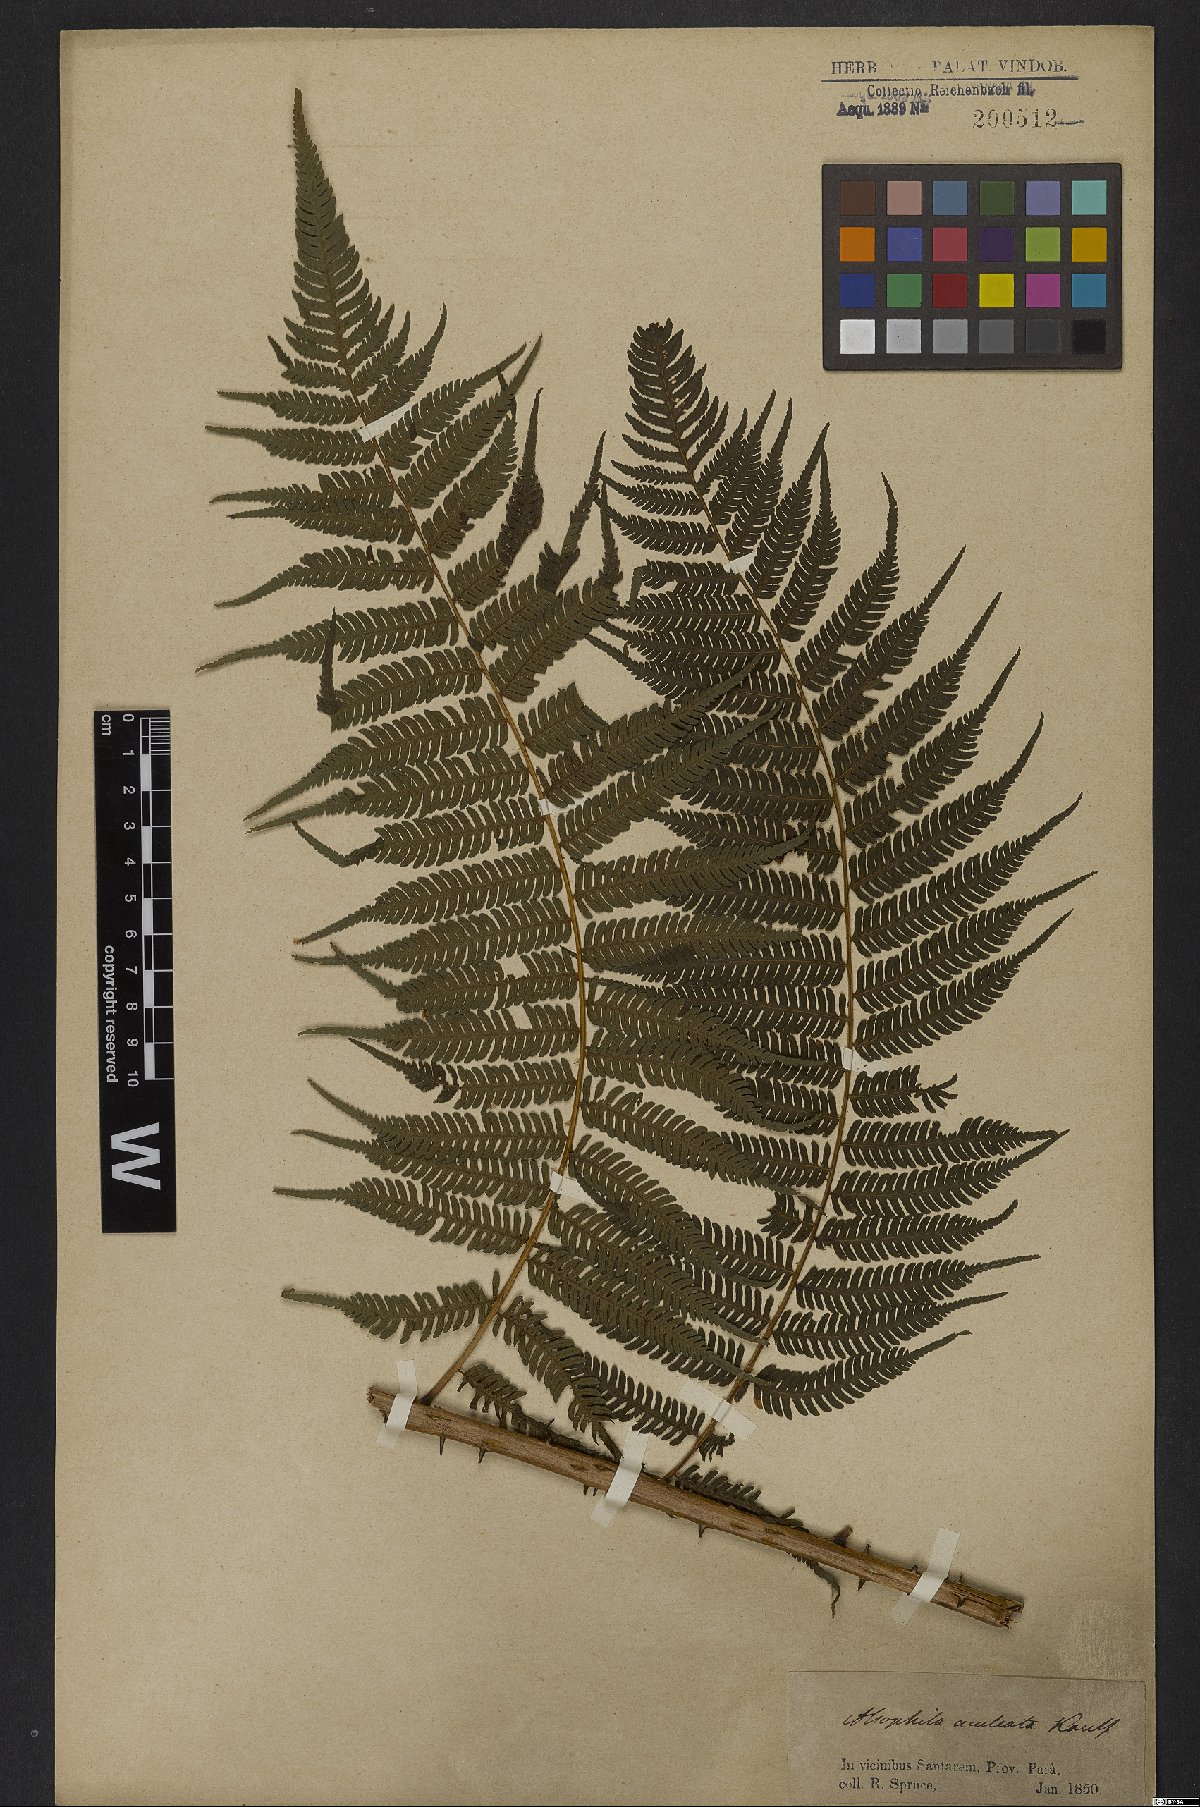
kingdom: Plantae
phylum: Tracheophyta
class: Polypodiopsida
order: Cyatheales
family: Cyatheaceae
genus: Cyathea
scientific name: Cyathea microdonta
